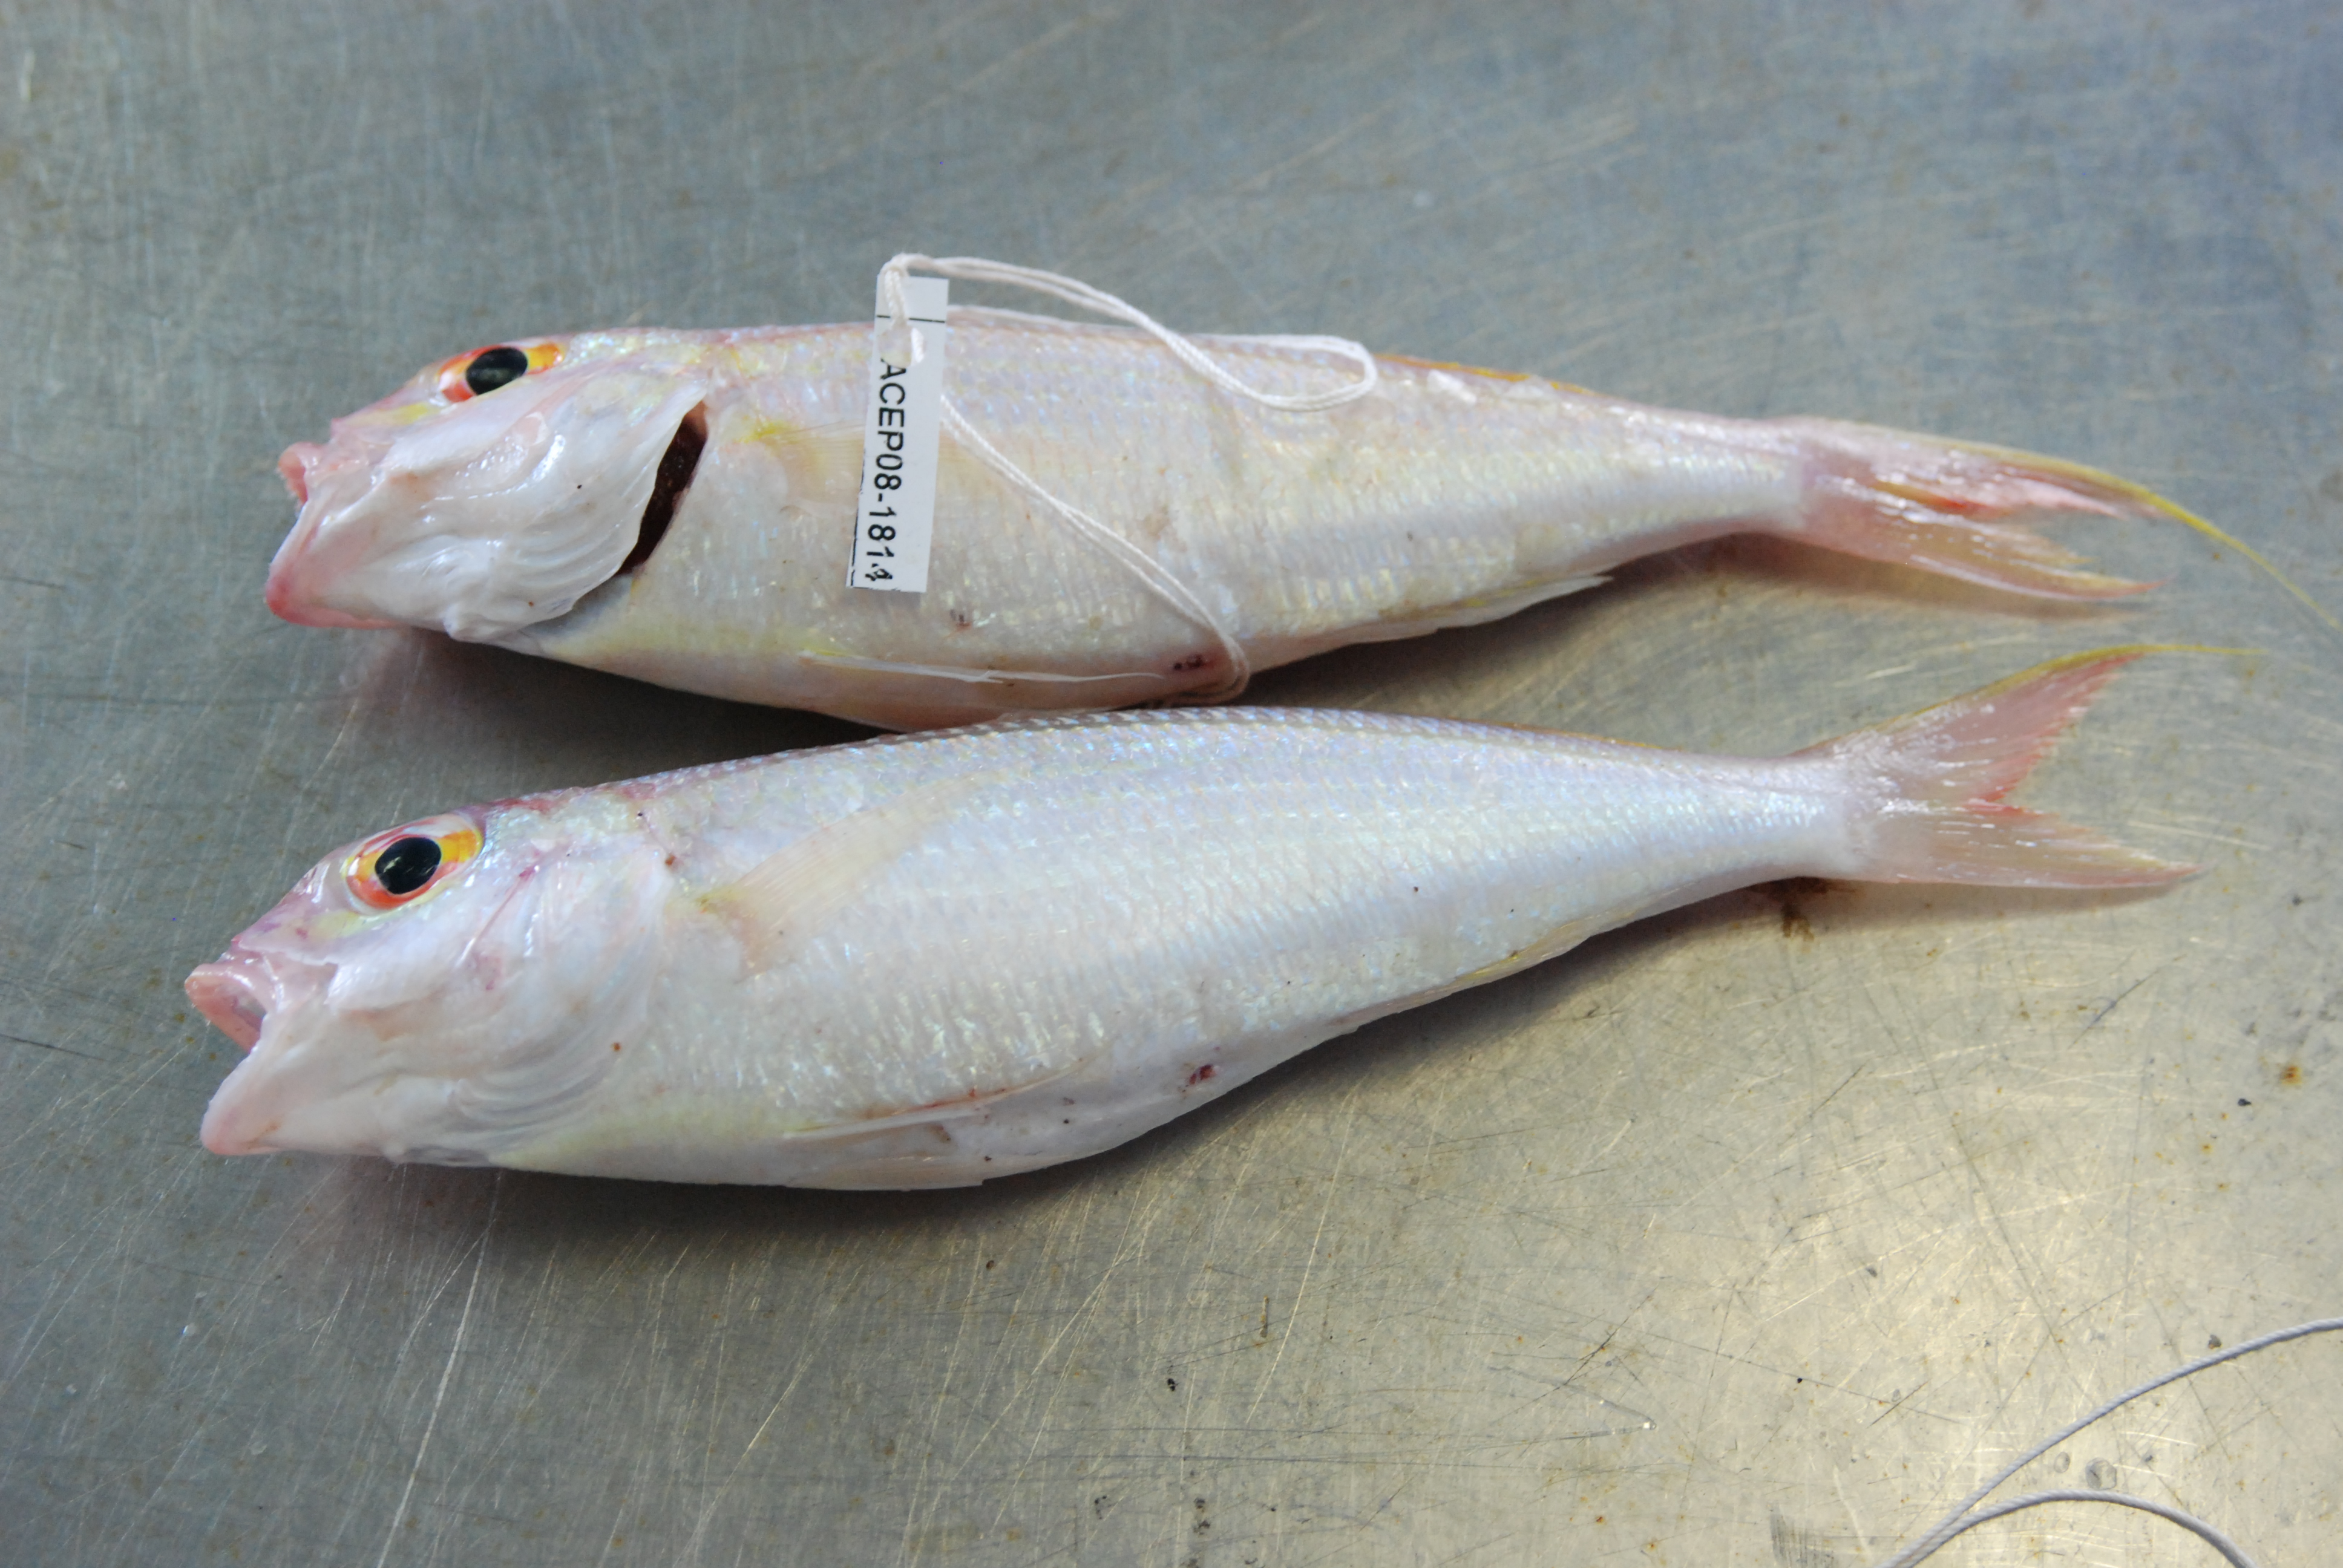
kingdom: Animalia
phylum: Chordata
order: Perciformes
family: Nemipteridae
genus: Nemipterus
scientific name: Nemipterus zysron
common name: Slender threadfin bream
